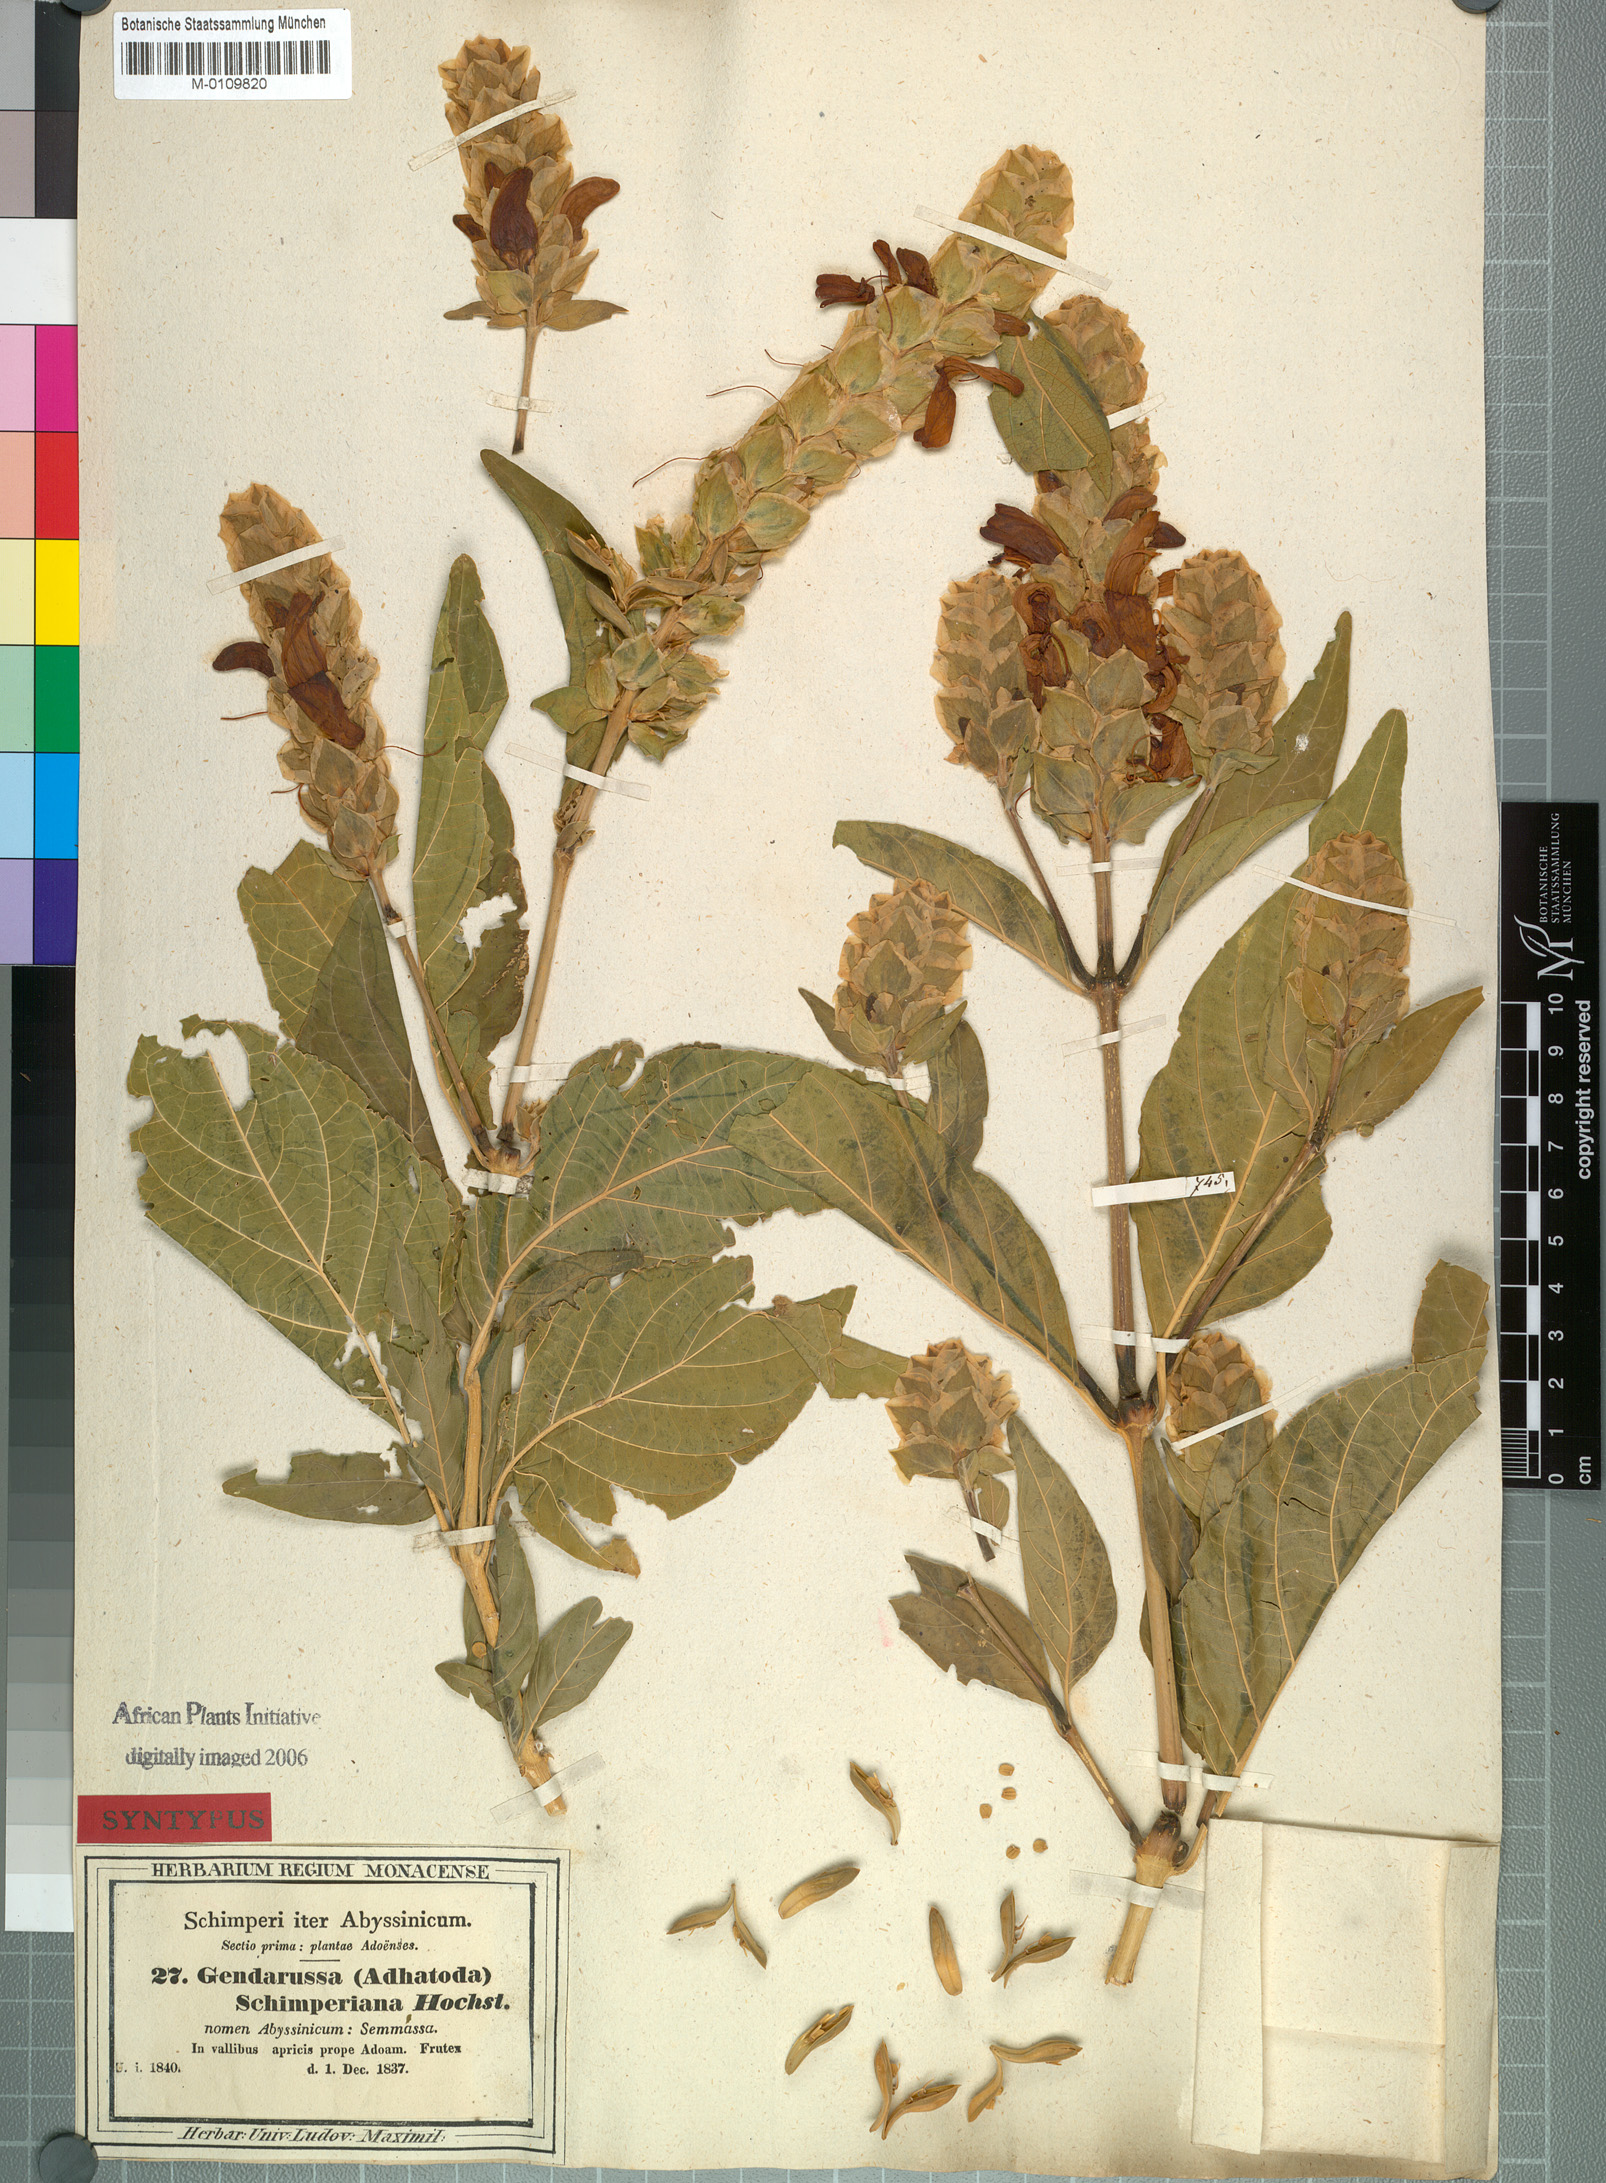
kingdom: Plantae
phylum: Tracheophyta
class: Magnoliopsida
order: Lamiales
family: Acanthaceae
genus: Justicia
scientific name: Justicia schimperiana
